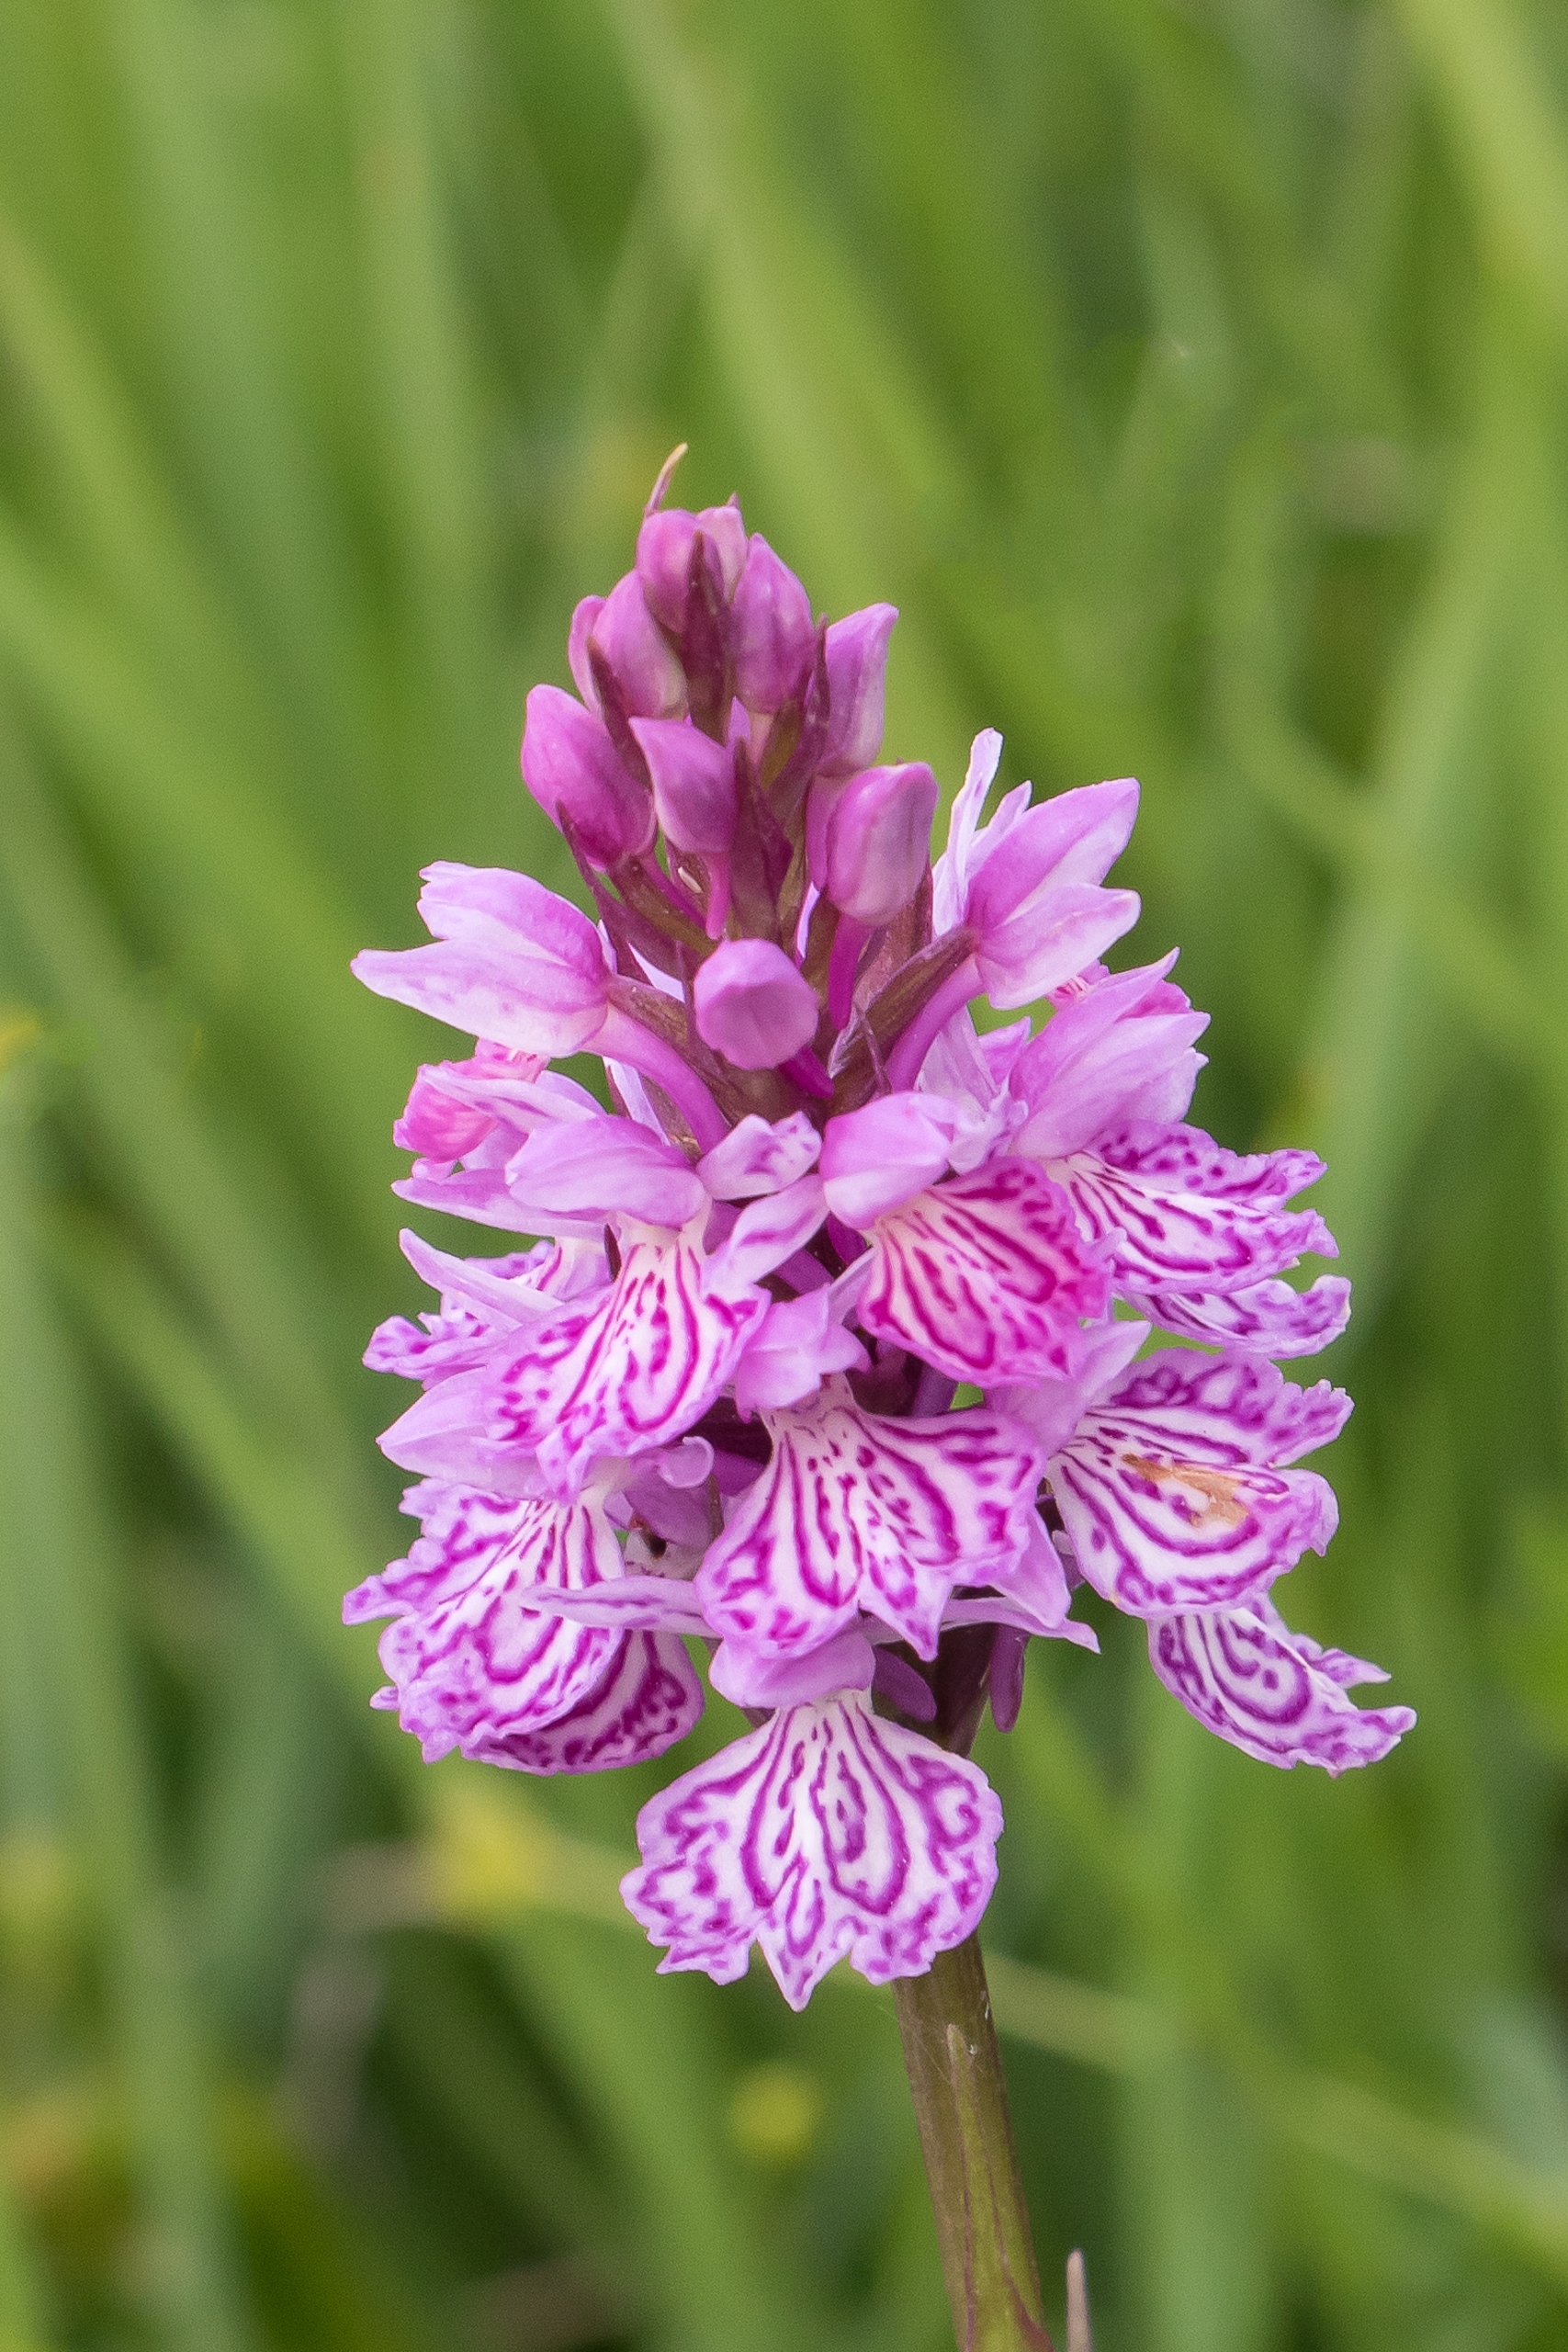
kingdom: Plantae
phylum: Tracheophyta
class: Liliopsida
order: Asparagales
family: Orchidaceae
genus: Dactylorhiza
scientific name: Dactylorhiza maculata
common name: Plettet gøgeurt
